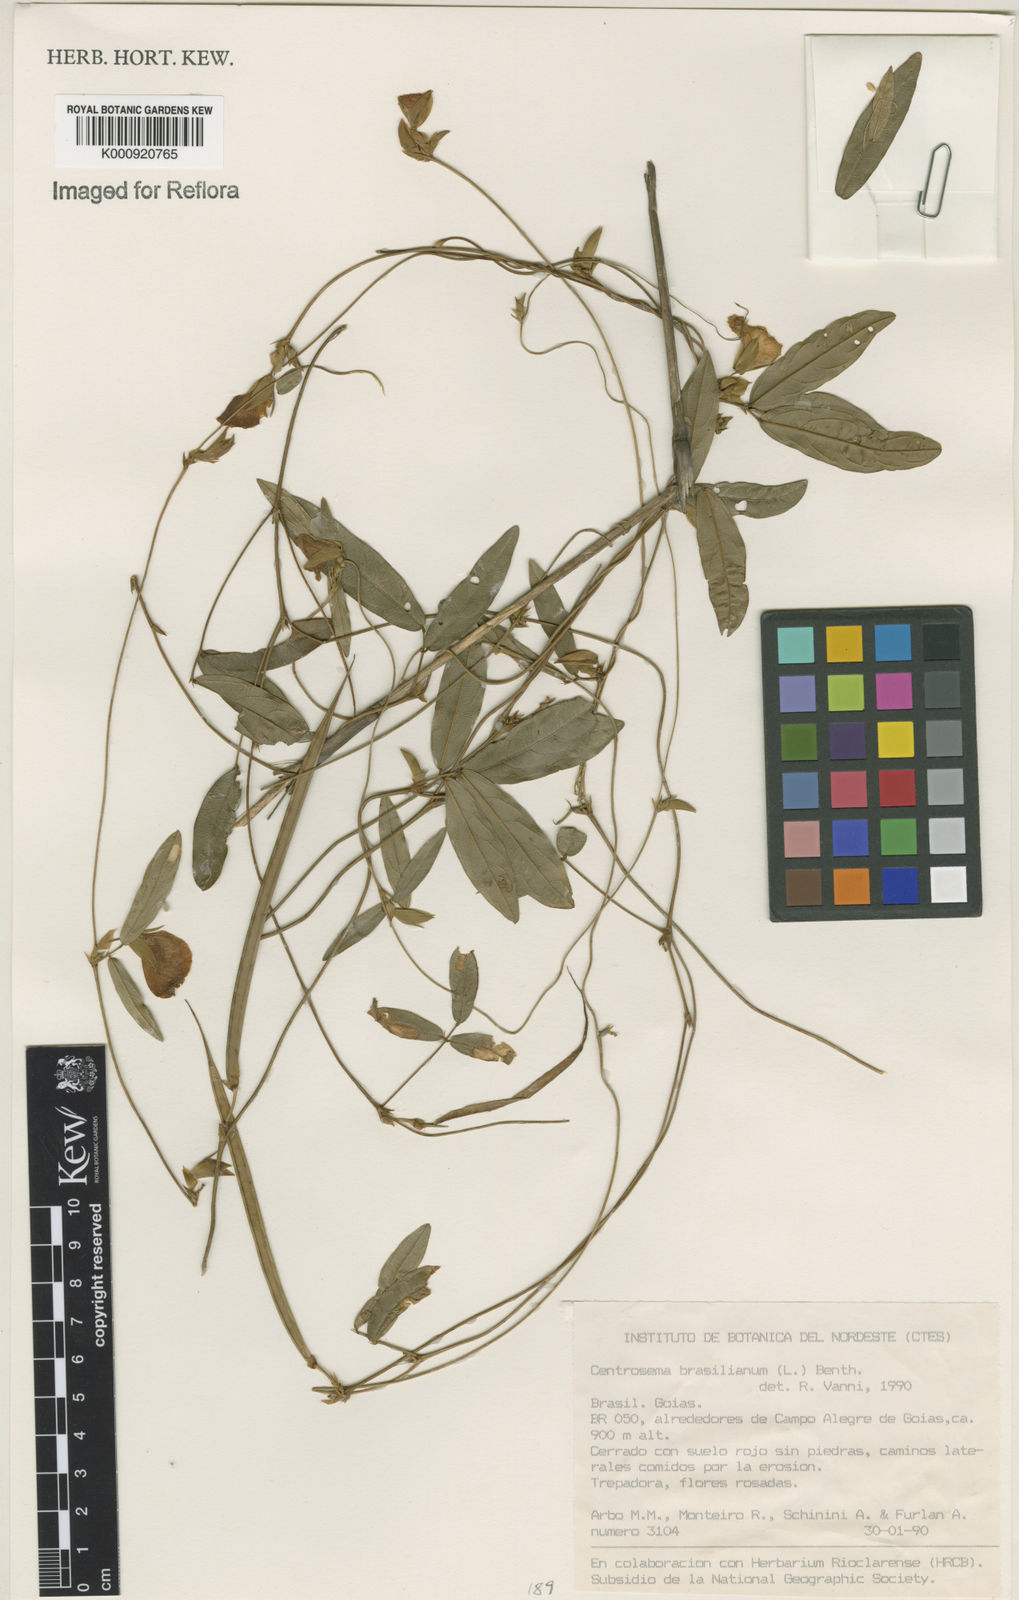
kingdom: Plantae
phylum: Tracheophyta
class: Magnoliopsida
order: Fabales
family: Fabaceae
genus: Centrosema
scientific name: Centrosema brasilianum
